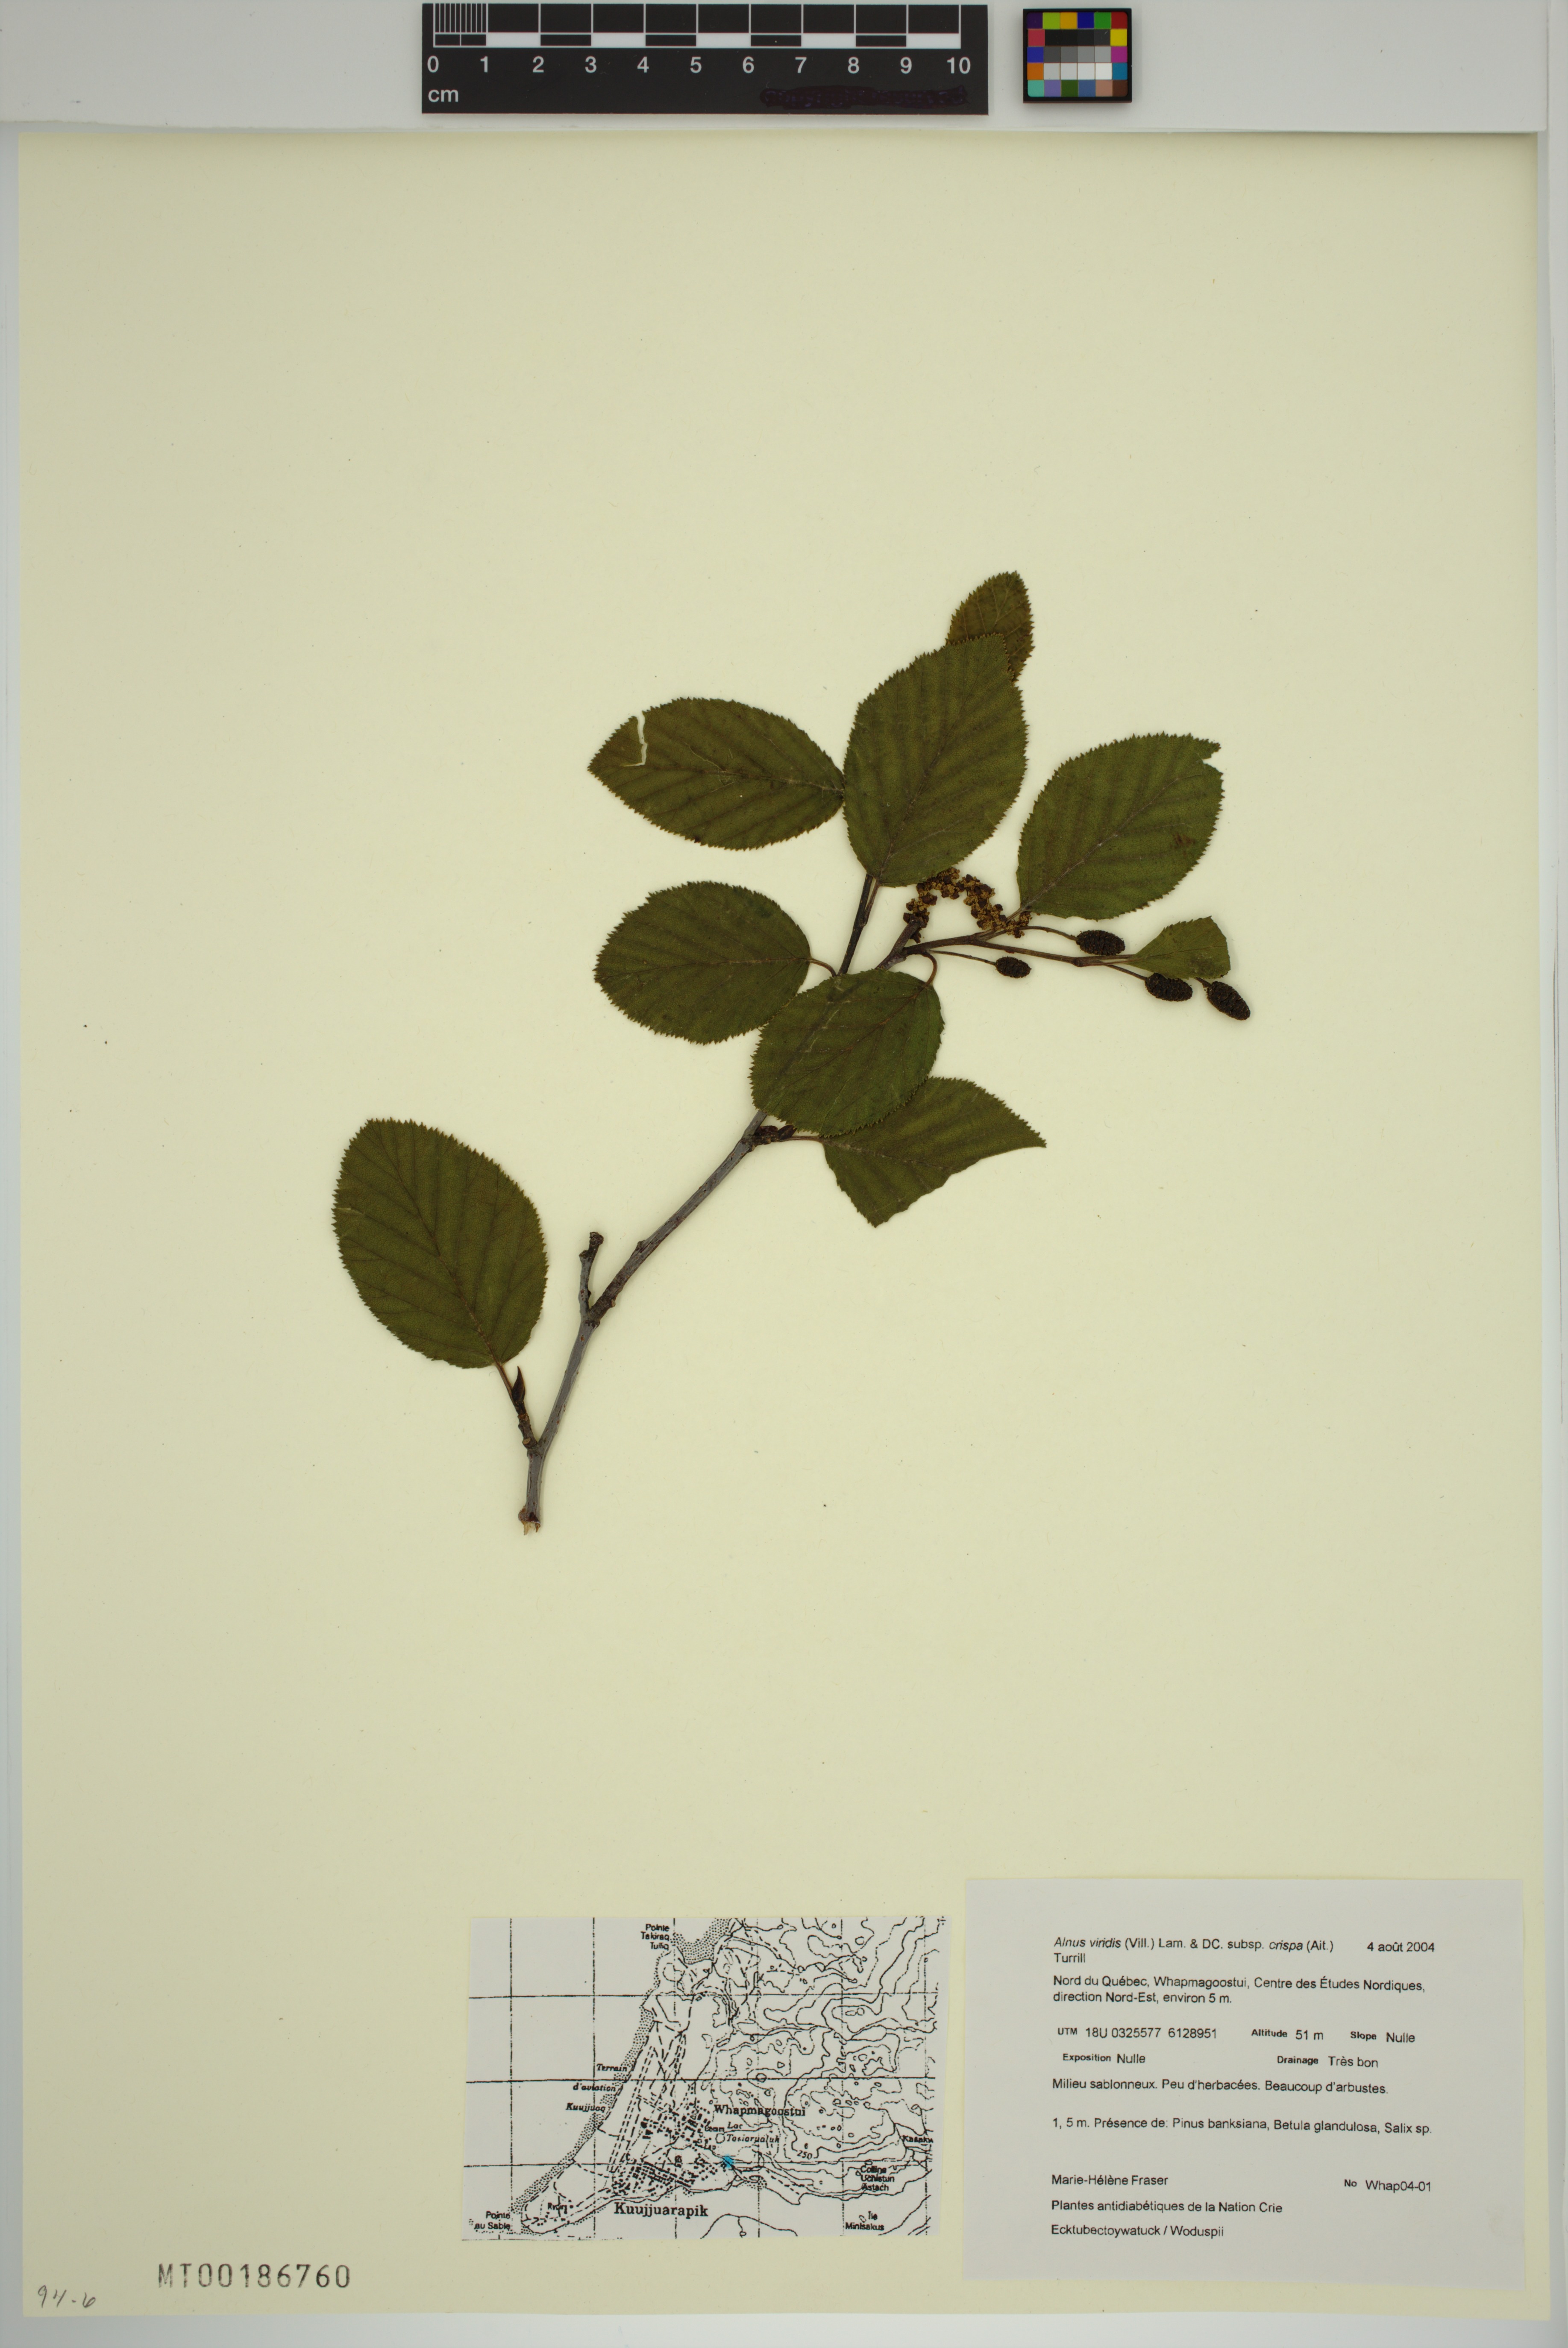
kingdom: Plantae
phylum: Tracheophyta
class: Magnoliopsida
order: Fagales
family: Betulaceae
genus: Alnus
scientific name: Alnus alnobetula
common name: Green alder
